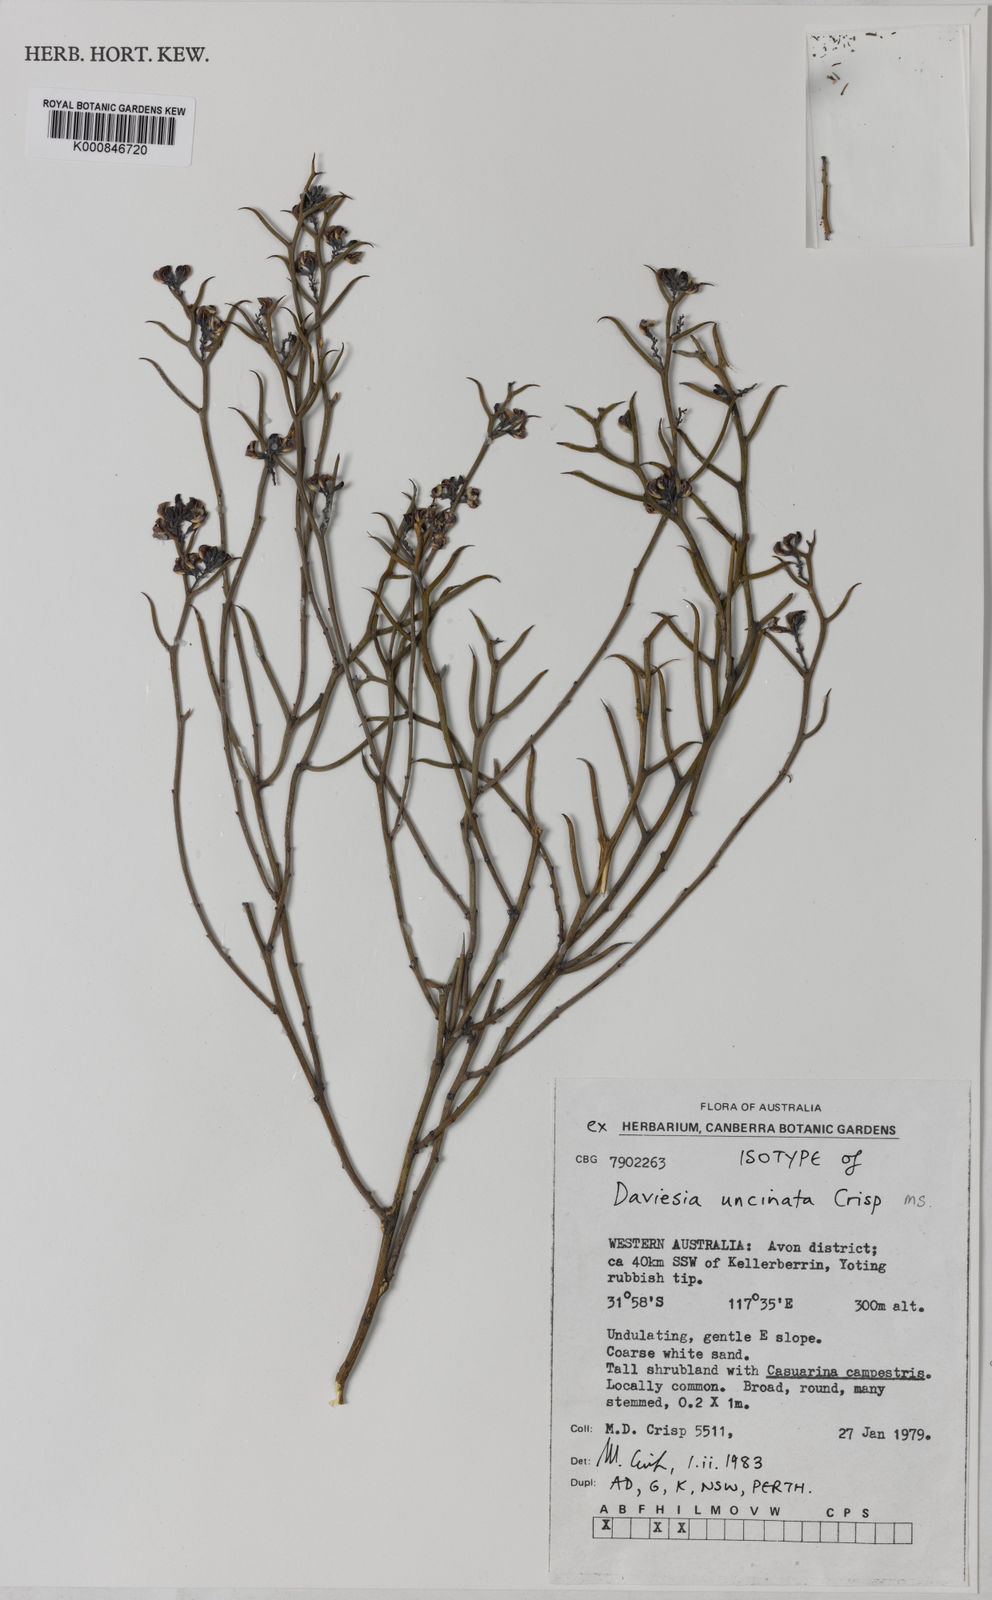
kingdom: Plantae
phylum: Tracheophyta
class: Magnoliopsida
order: Fabales
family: Fabaceae
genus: Daviesia
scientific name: Daviesia uncinata
